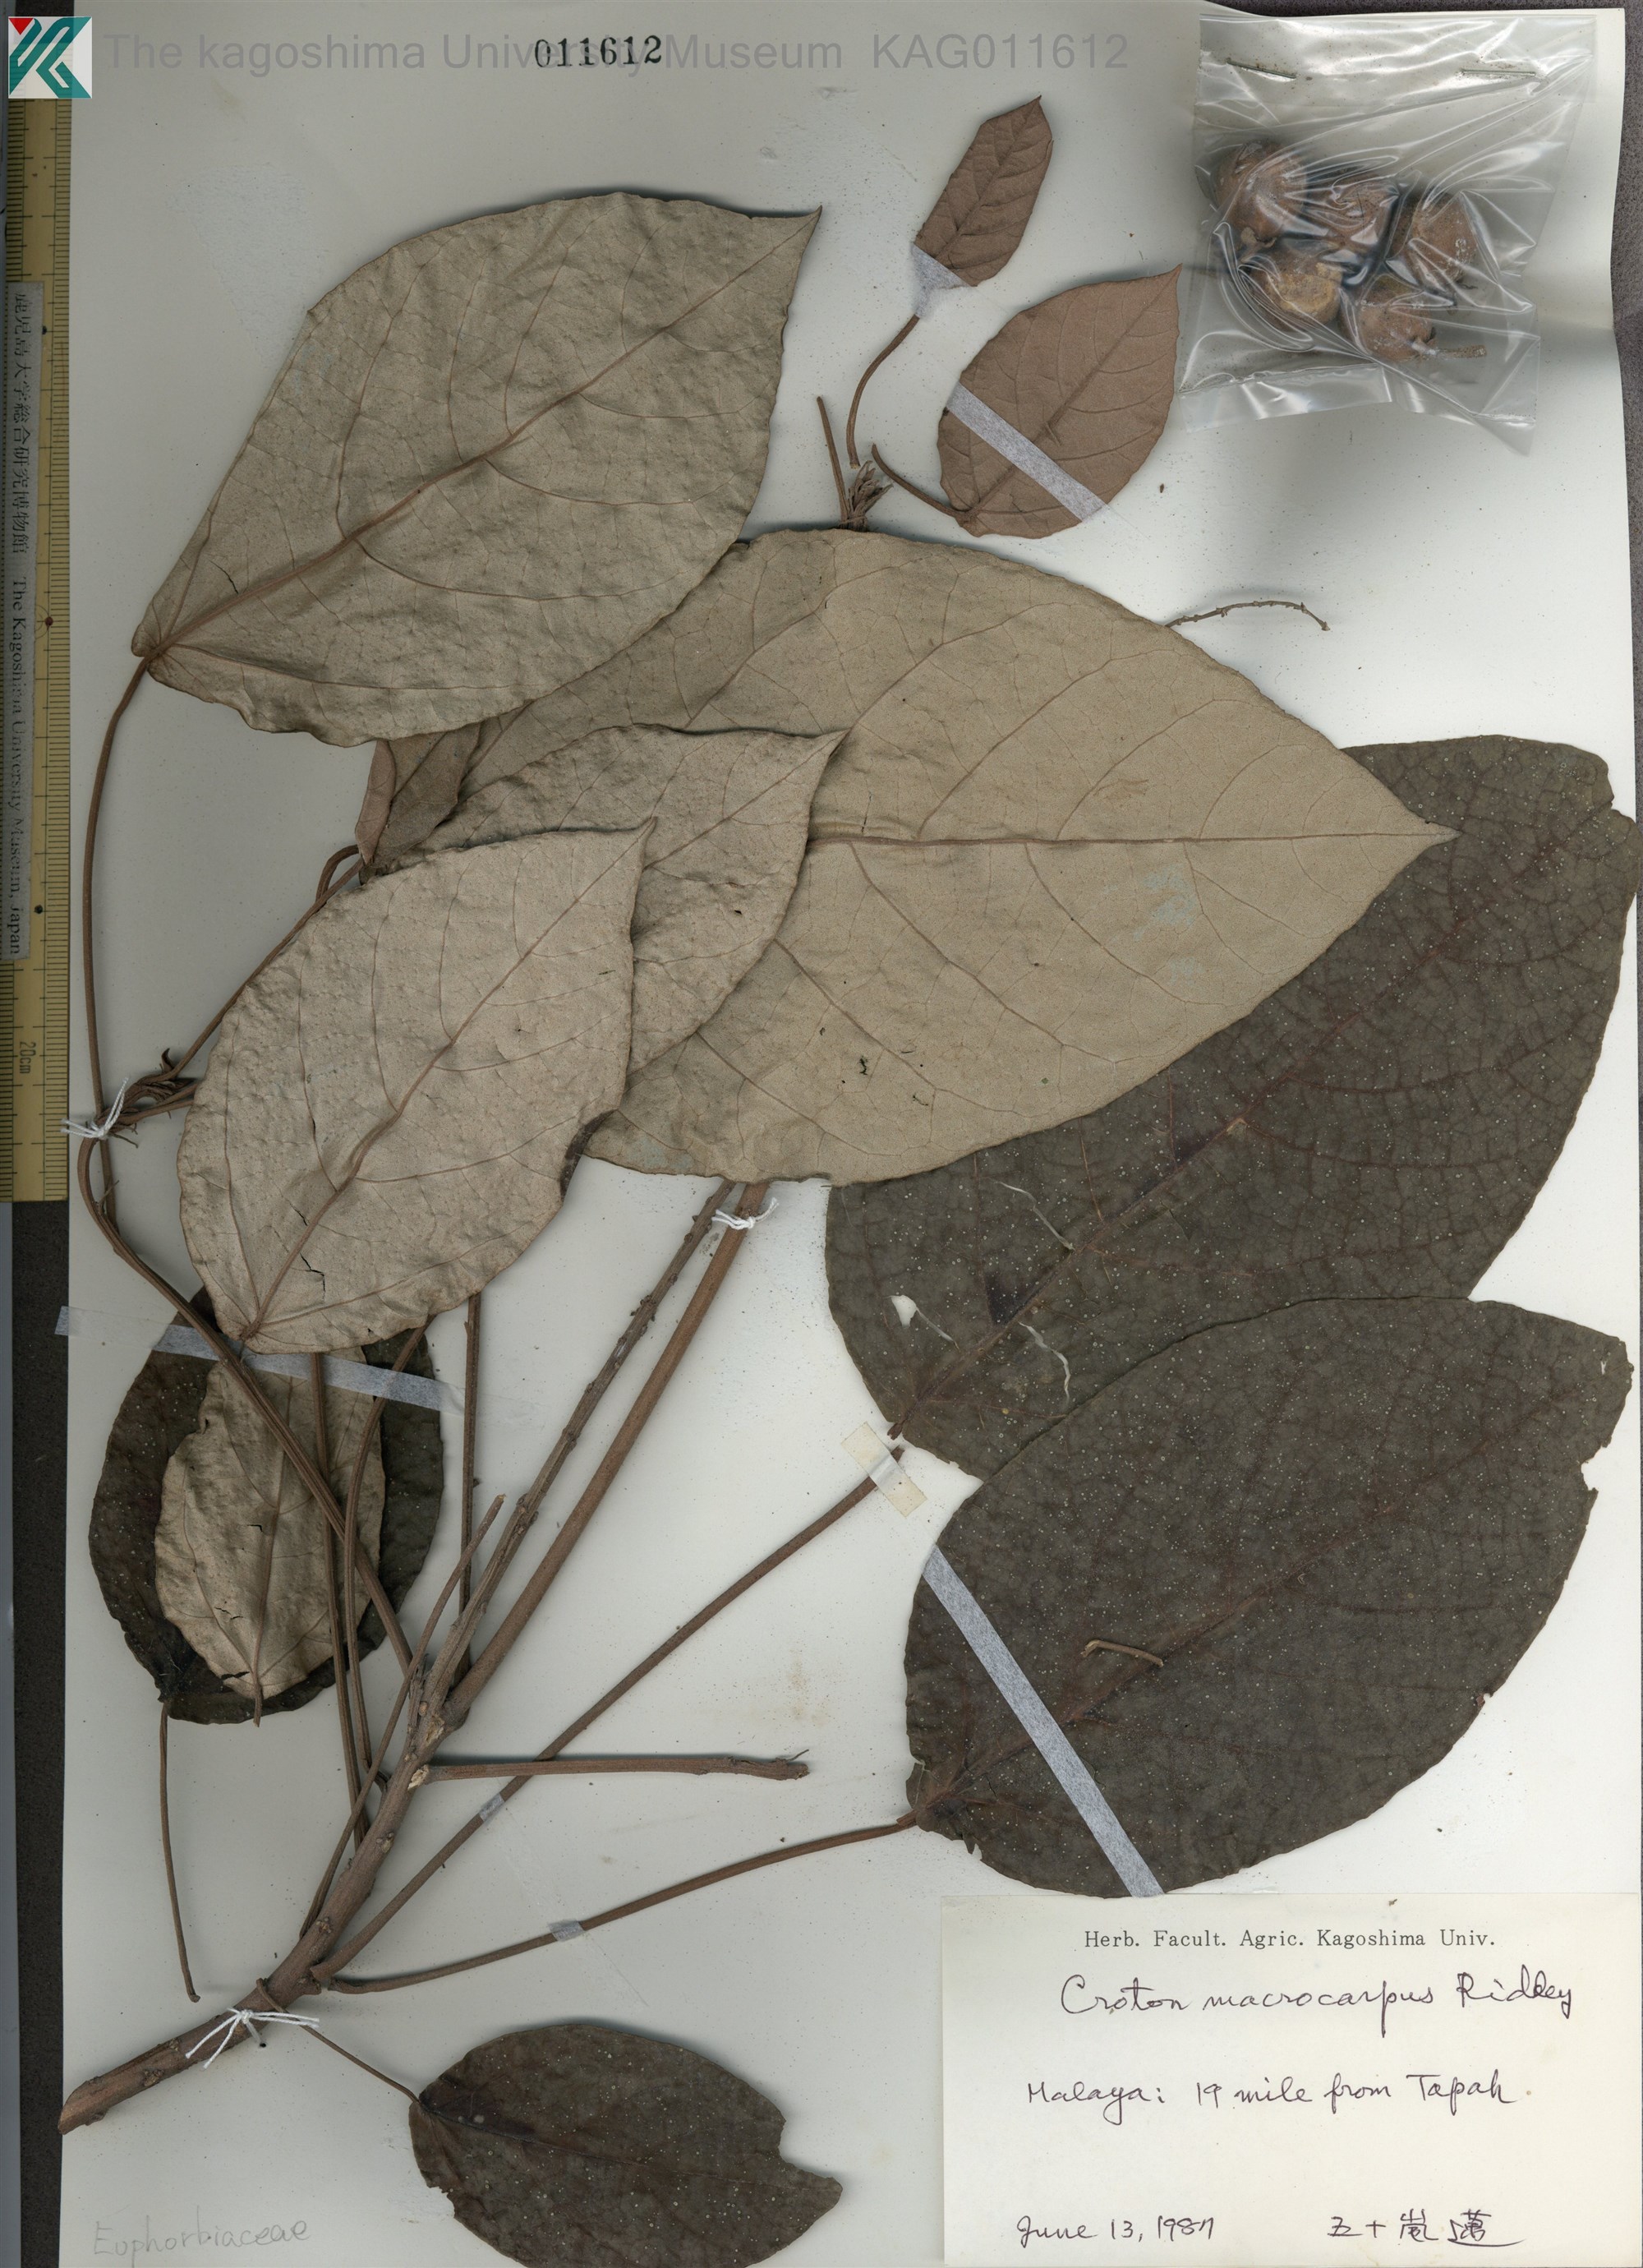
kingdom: Plantae
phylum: Tracheophyta
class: Magnoliopsida
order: Malpighiales
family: Euphorbiaceae
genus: Croton
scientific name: Croton macrocarpus
